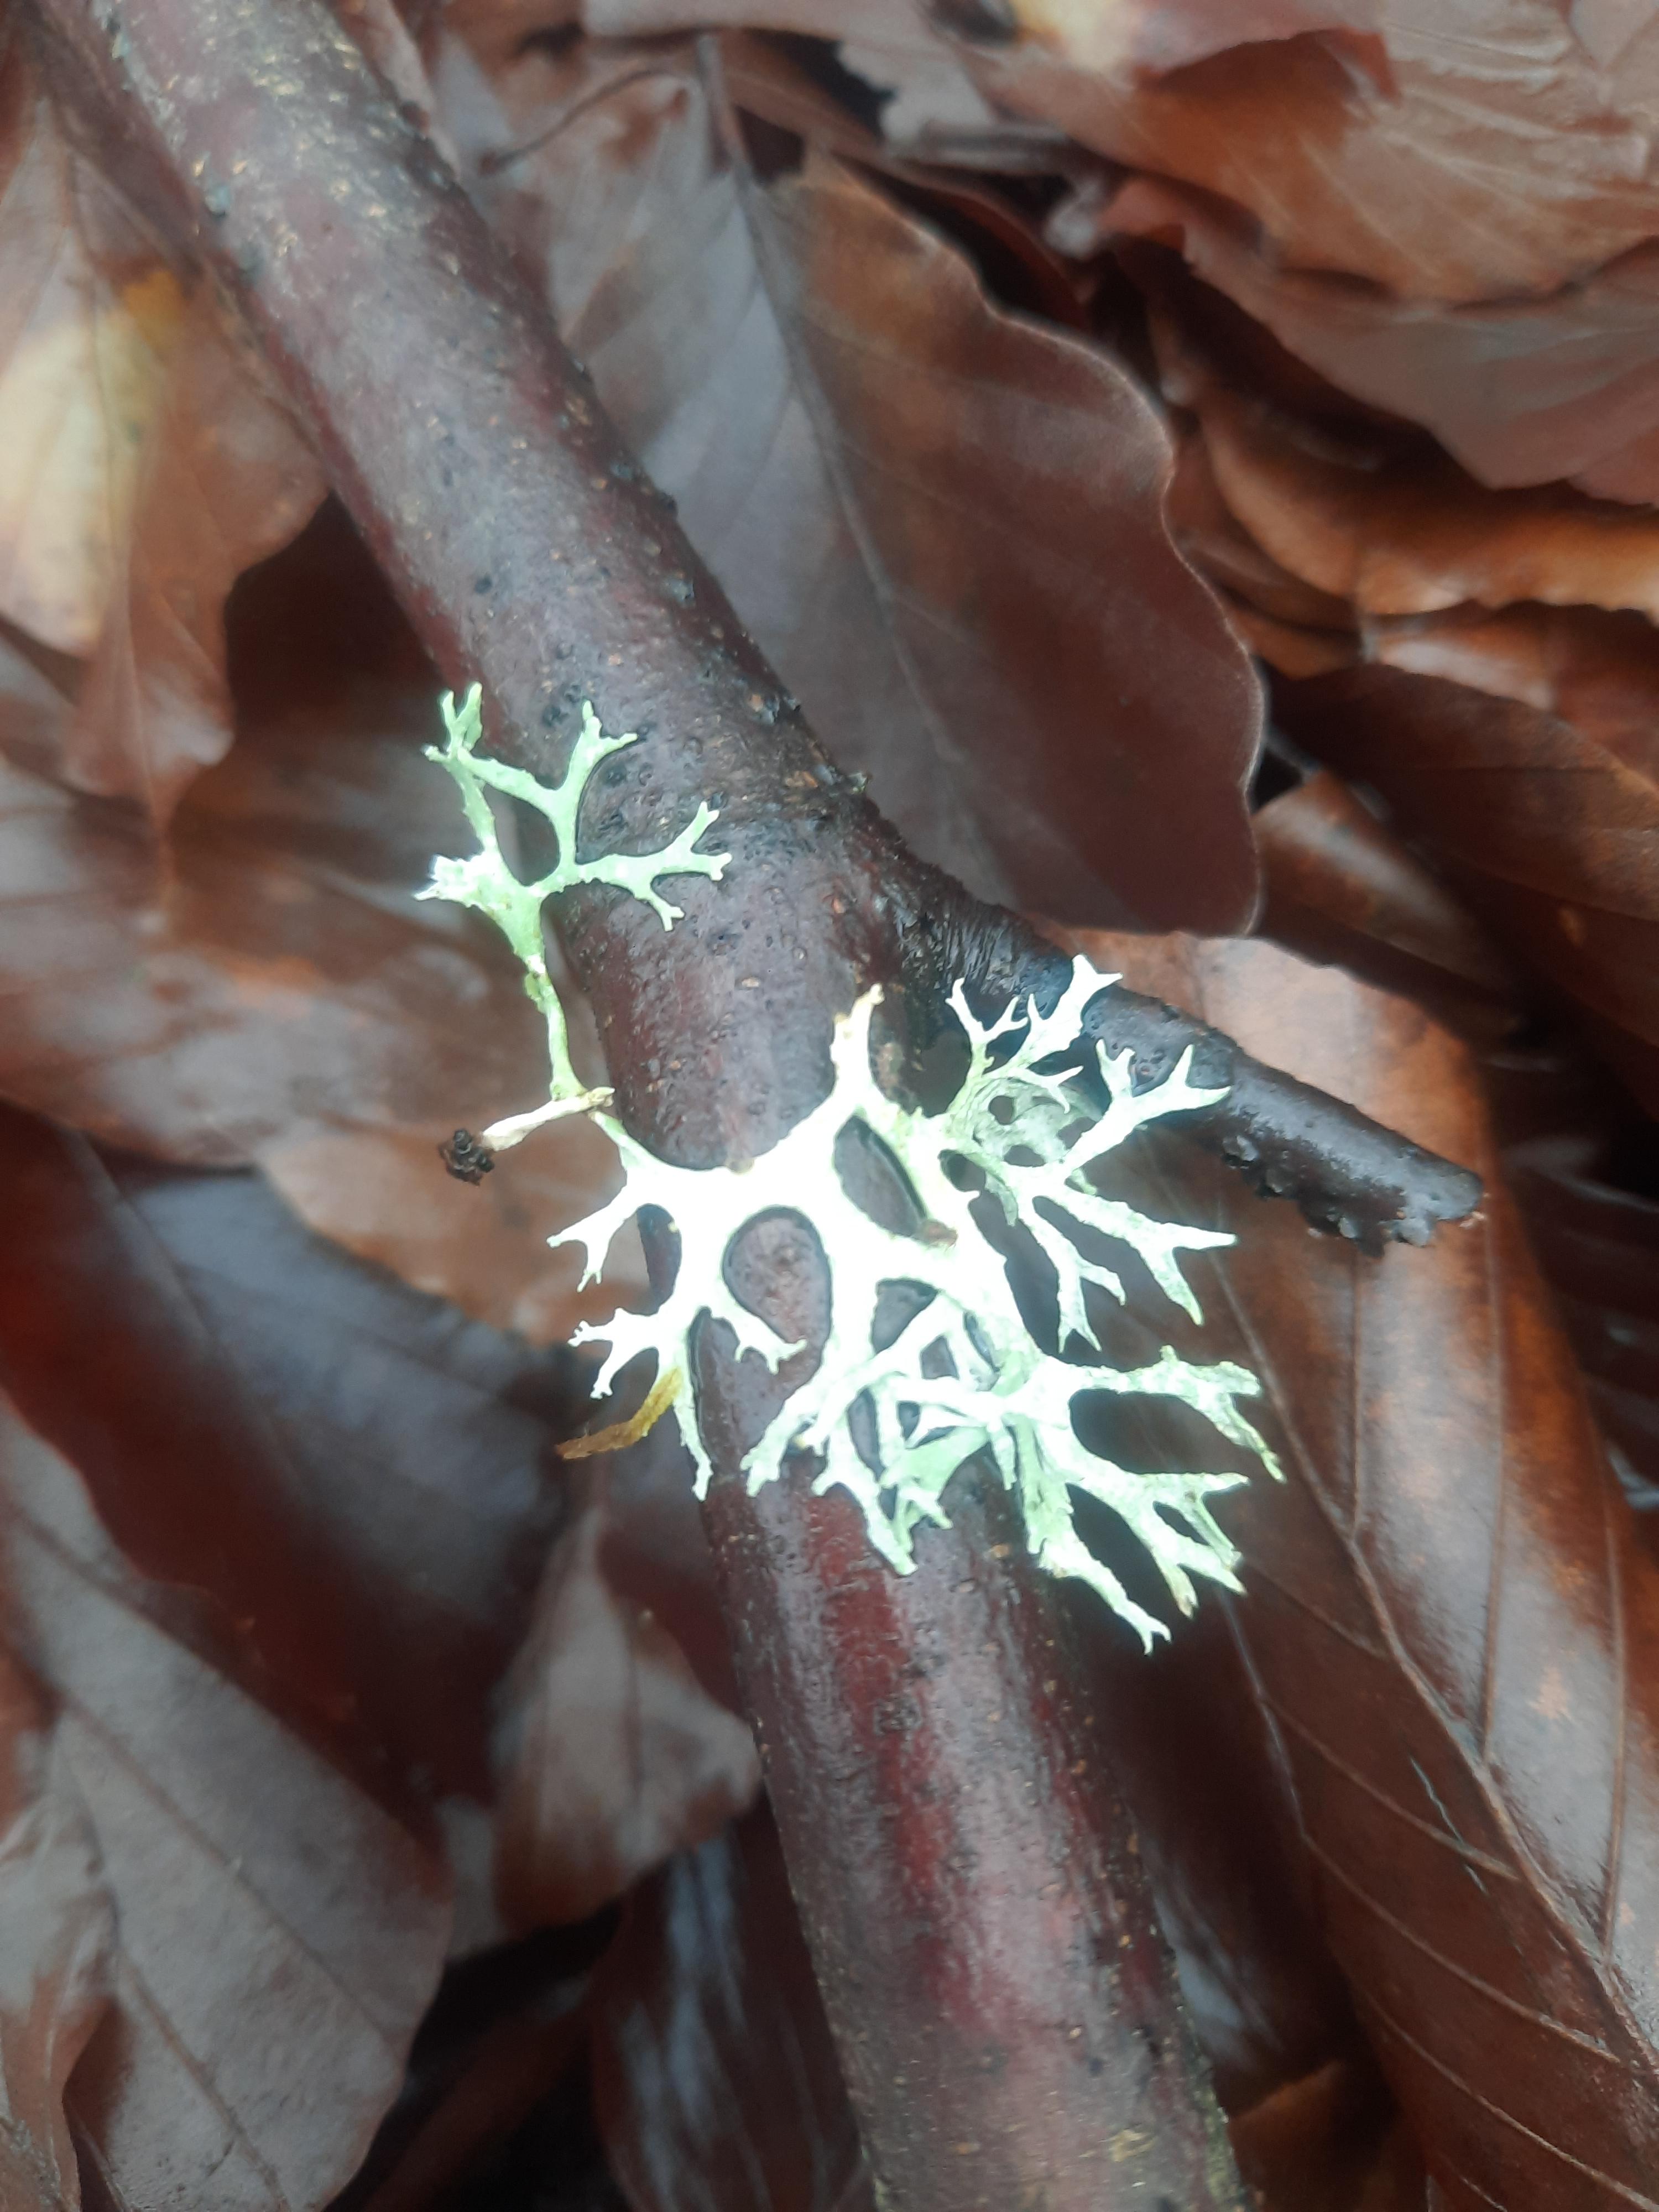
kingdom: Fungi
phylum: Ascomycota
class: Lecanoromycetes
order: Lecanorales
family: Parmeliaceae
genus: Evernia
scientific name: Evernia prunastri
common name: almindelig slåenlav
